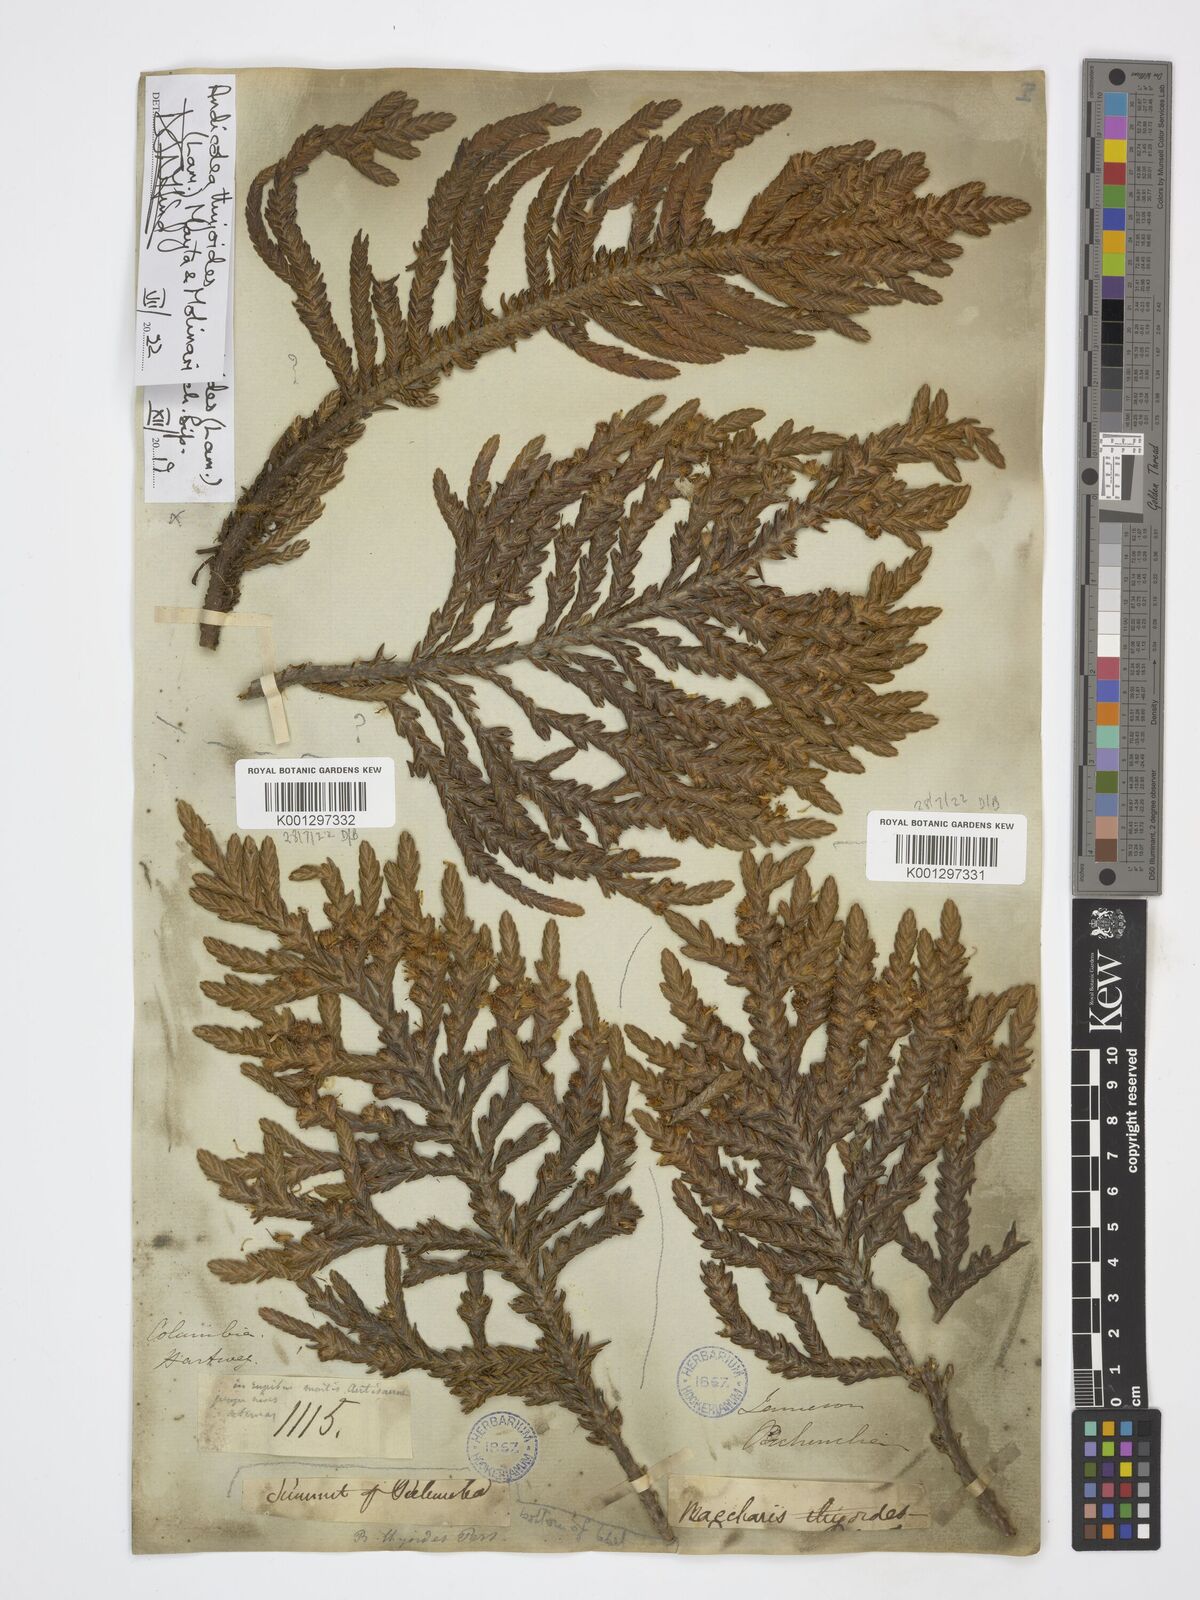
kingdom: Plantae
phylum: Tracheophyta
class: Magnoliopsida
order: Asterales
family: Asteraceae
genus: Andicolea
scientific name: Andicolea thuyoides
